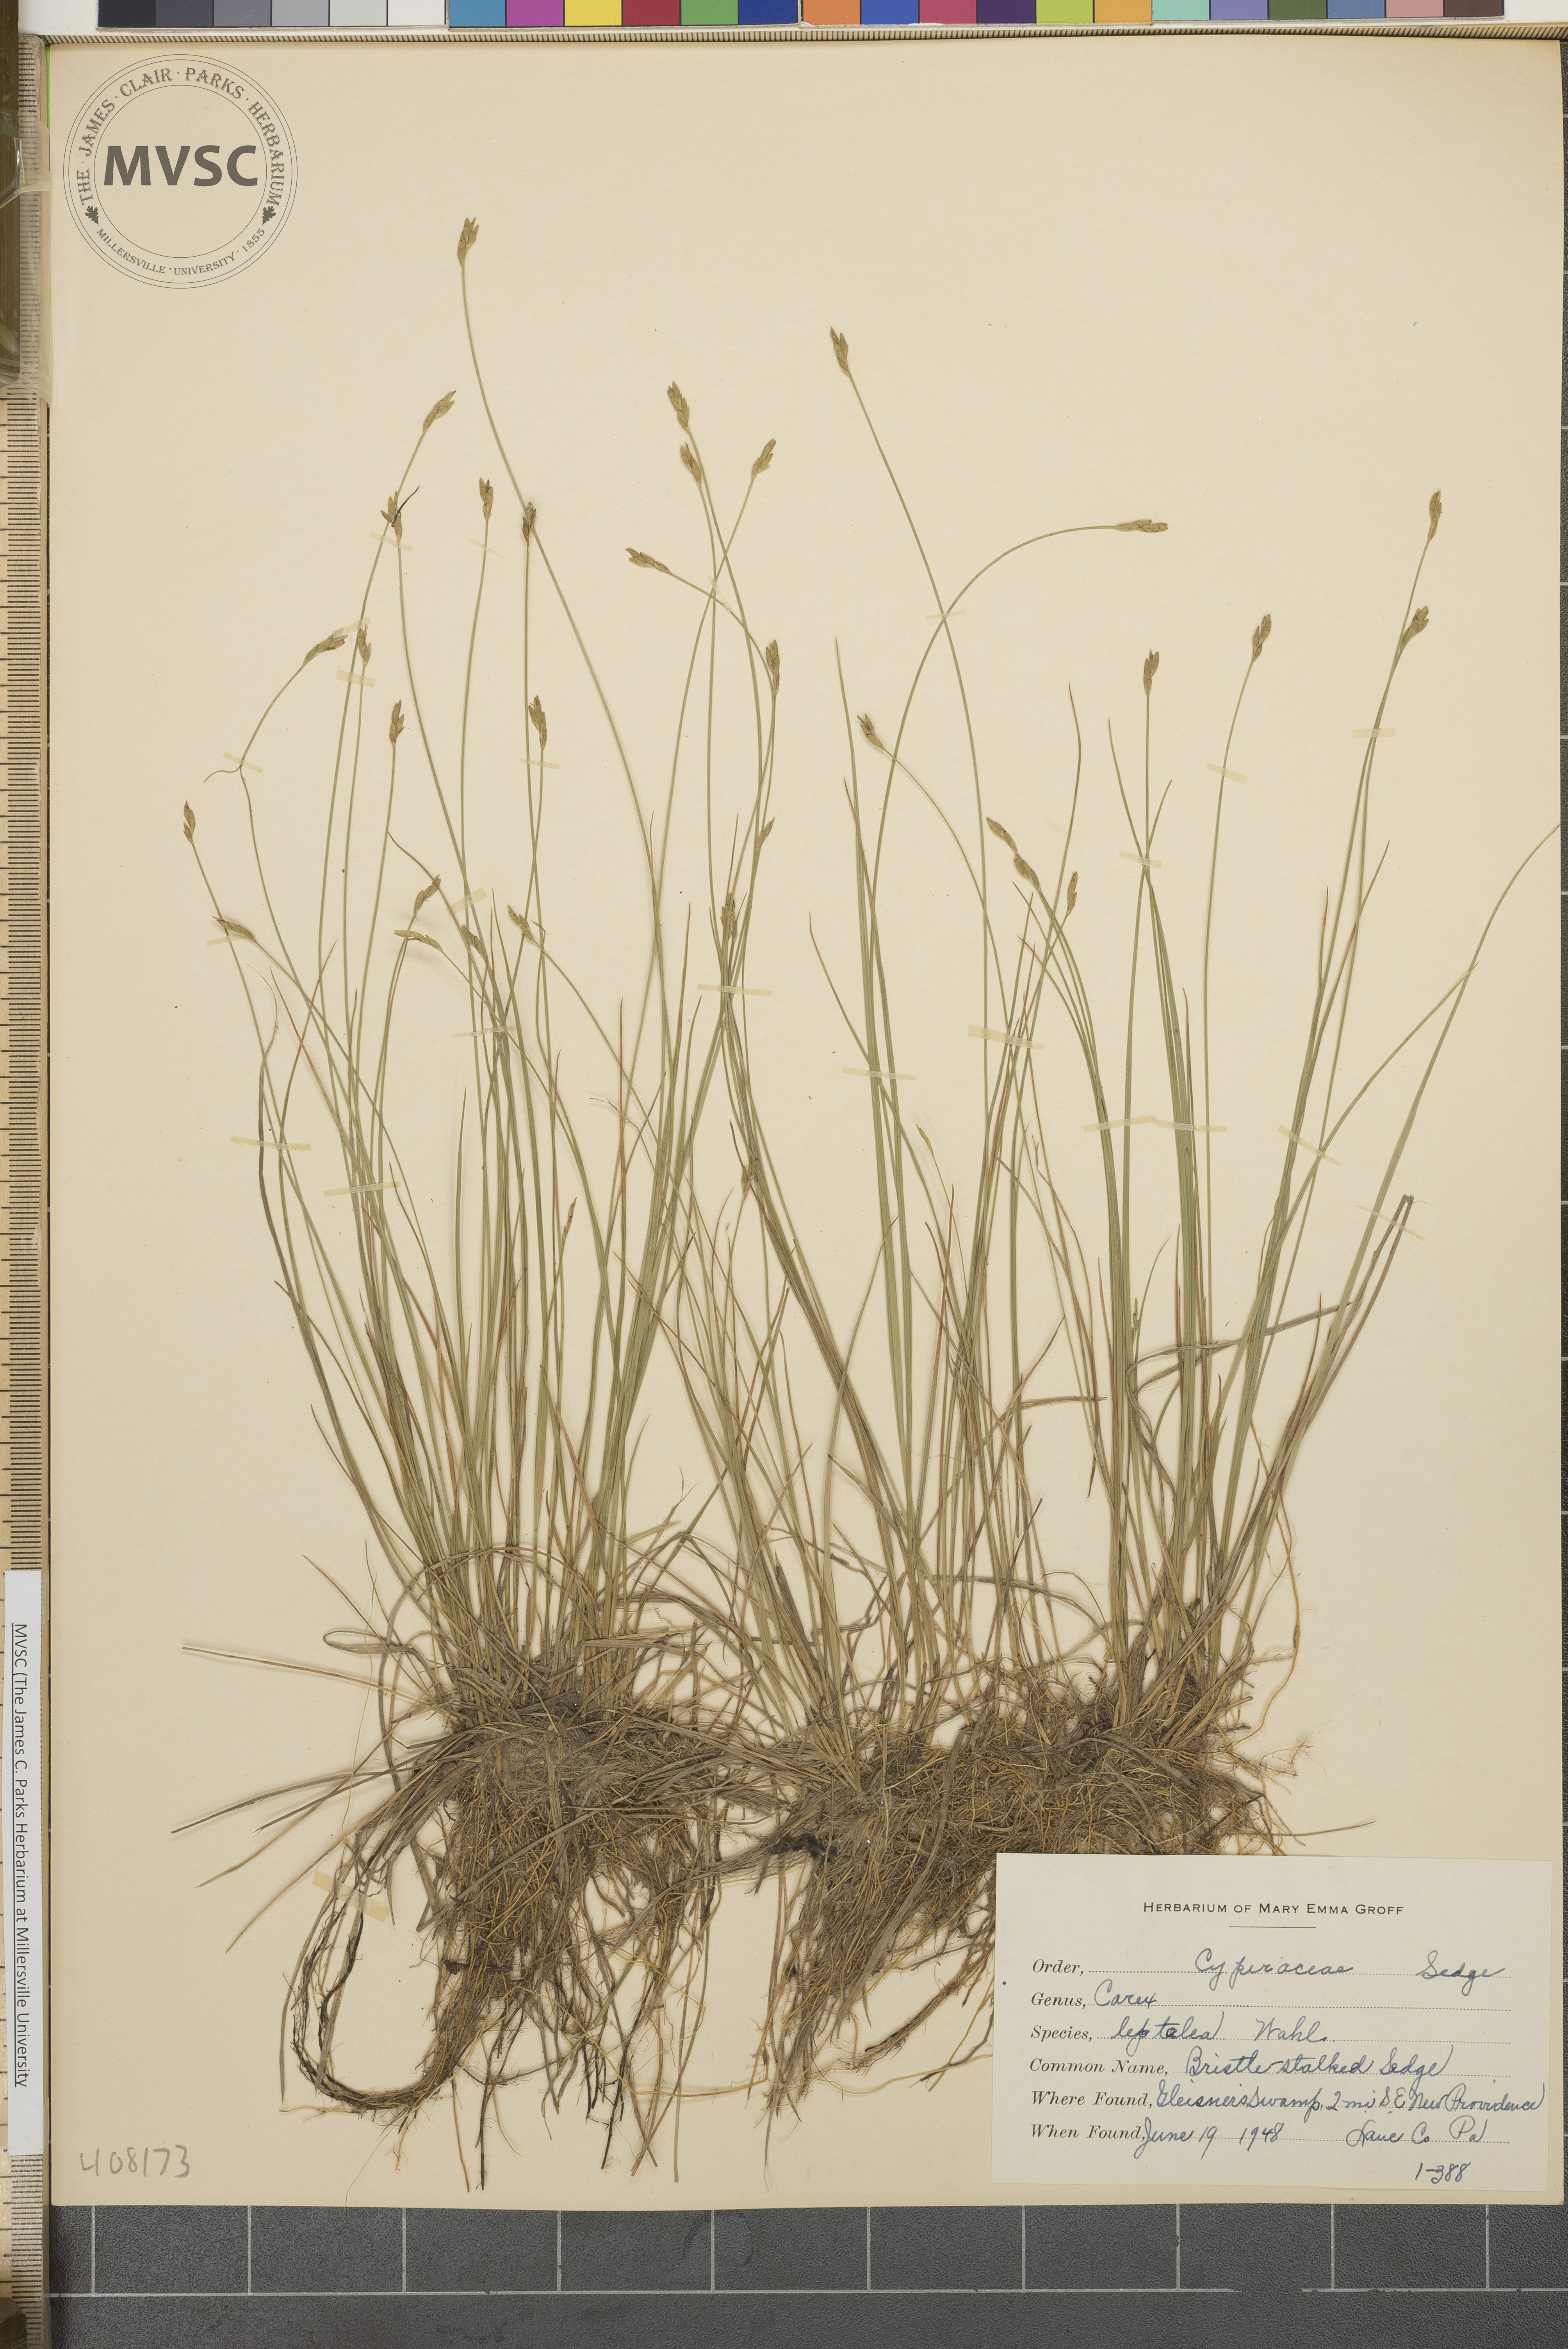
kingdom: Plantae
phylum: Tracheophyta
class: Liliopsida
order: Poales
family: Cyperaceae
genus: Carex
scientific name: Carex leptalea
